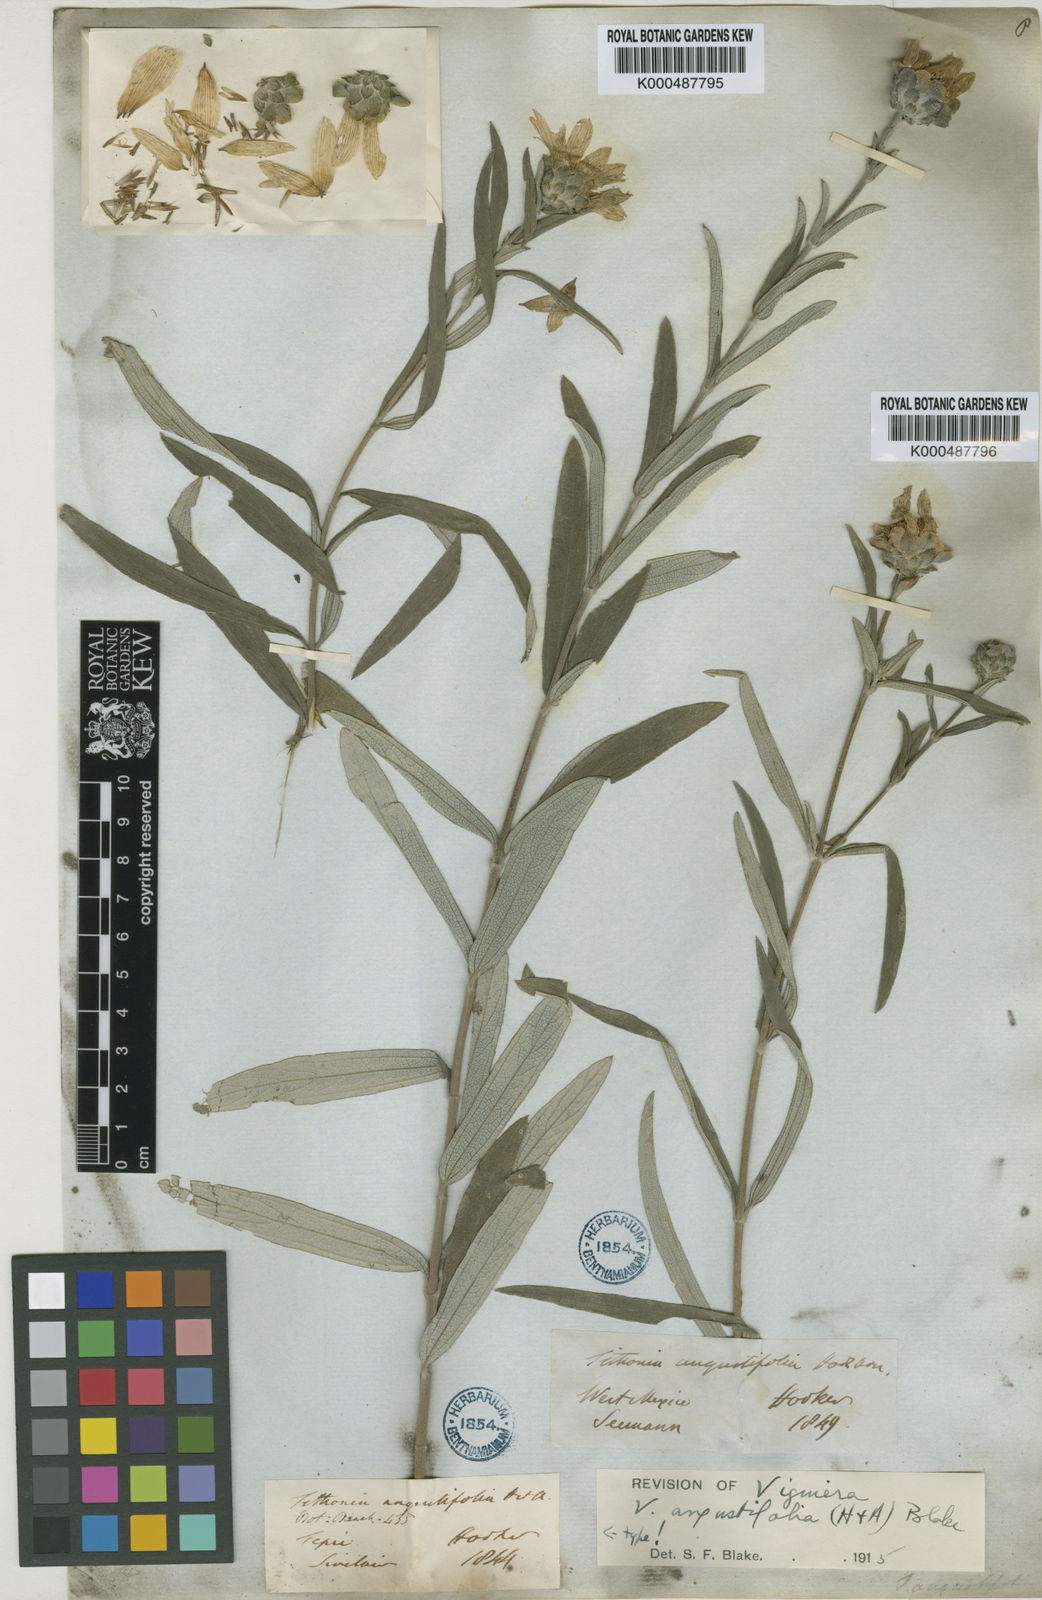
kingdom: Plantae
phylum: Tracheophyta
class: Magnoliopsida
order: Asterales
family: Asteraceae
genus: Aldama
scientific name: Aldama angustifolia
